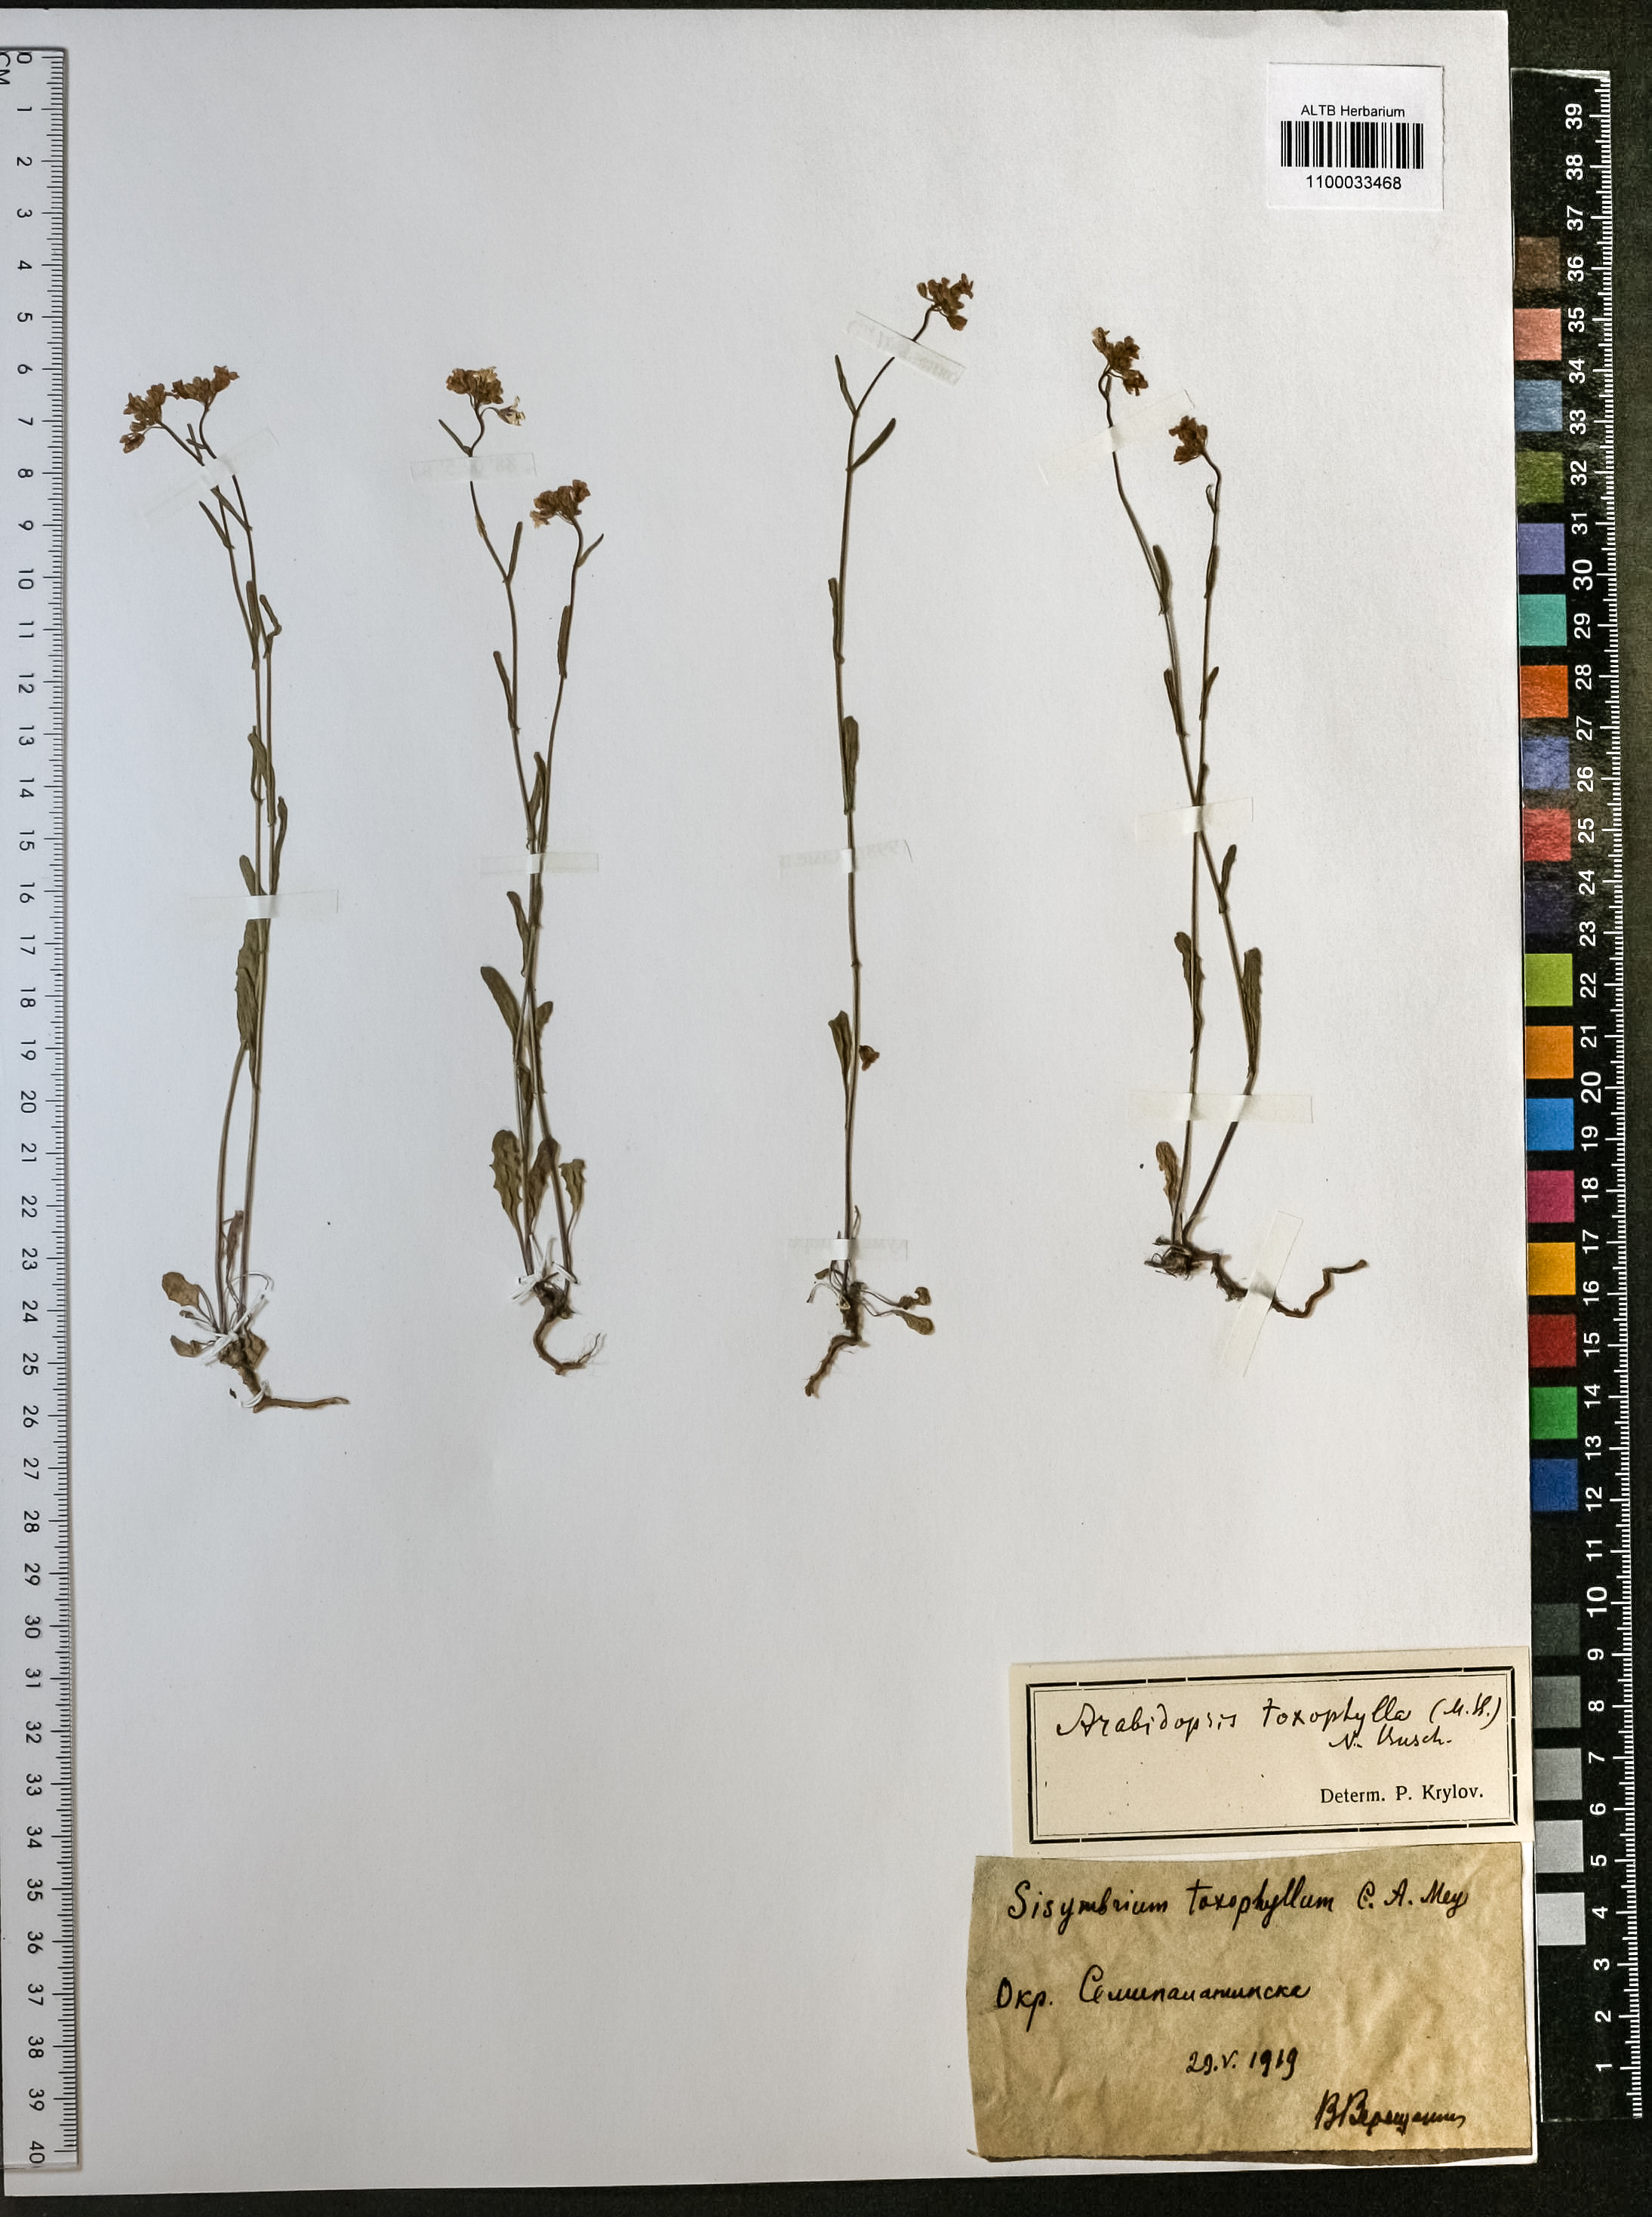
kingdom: Plantae
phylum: Tracheophyta
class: Magnoliopsida
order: Brassicales
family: Brassicaceae
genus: Pseudoarabidopsis
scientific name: Pseudoarabidopsis toxophylla
